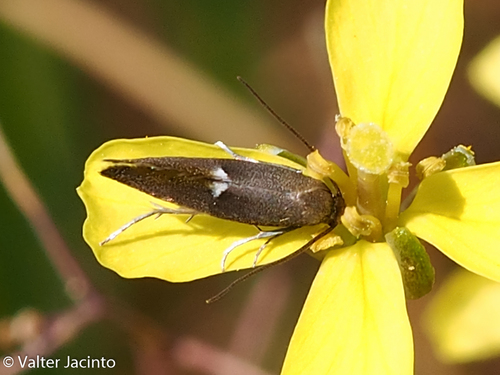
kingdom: Animalia
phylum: Arthropoda
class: Insecta
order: Lepidoptera
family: Elachistidae
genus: Perittia
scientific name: Perittia
